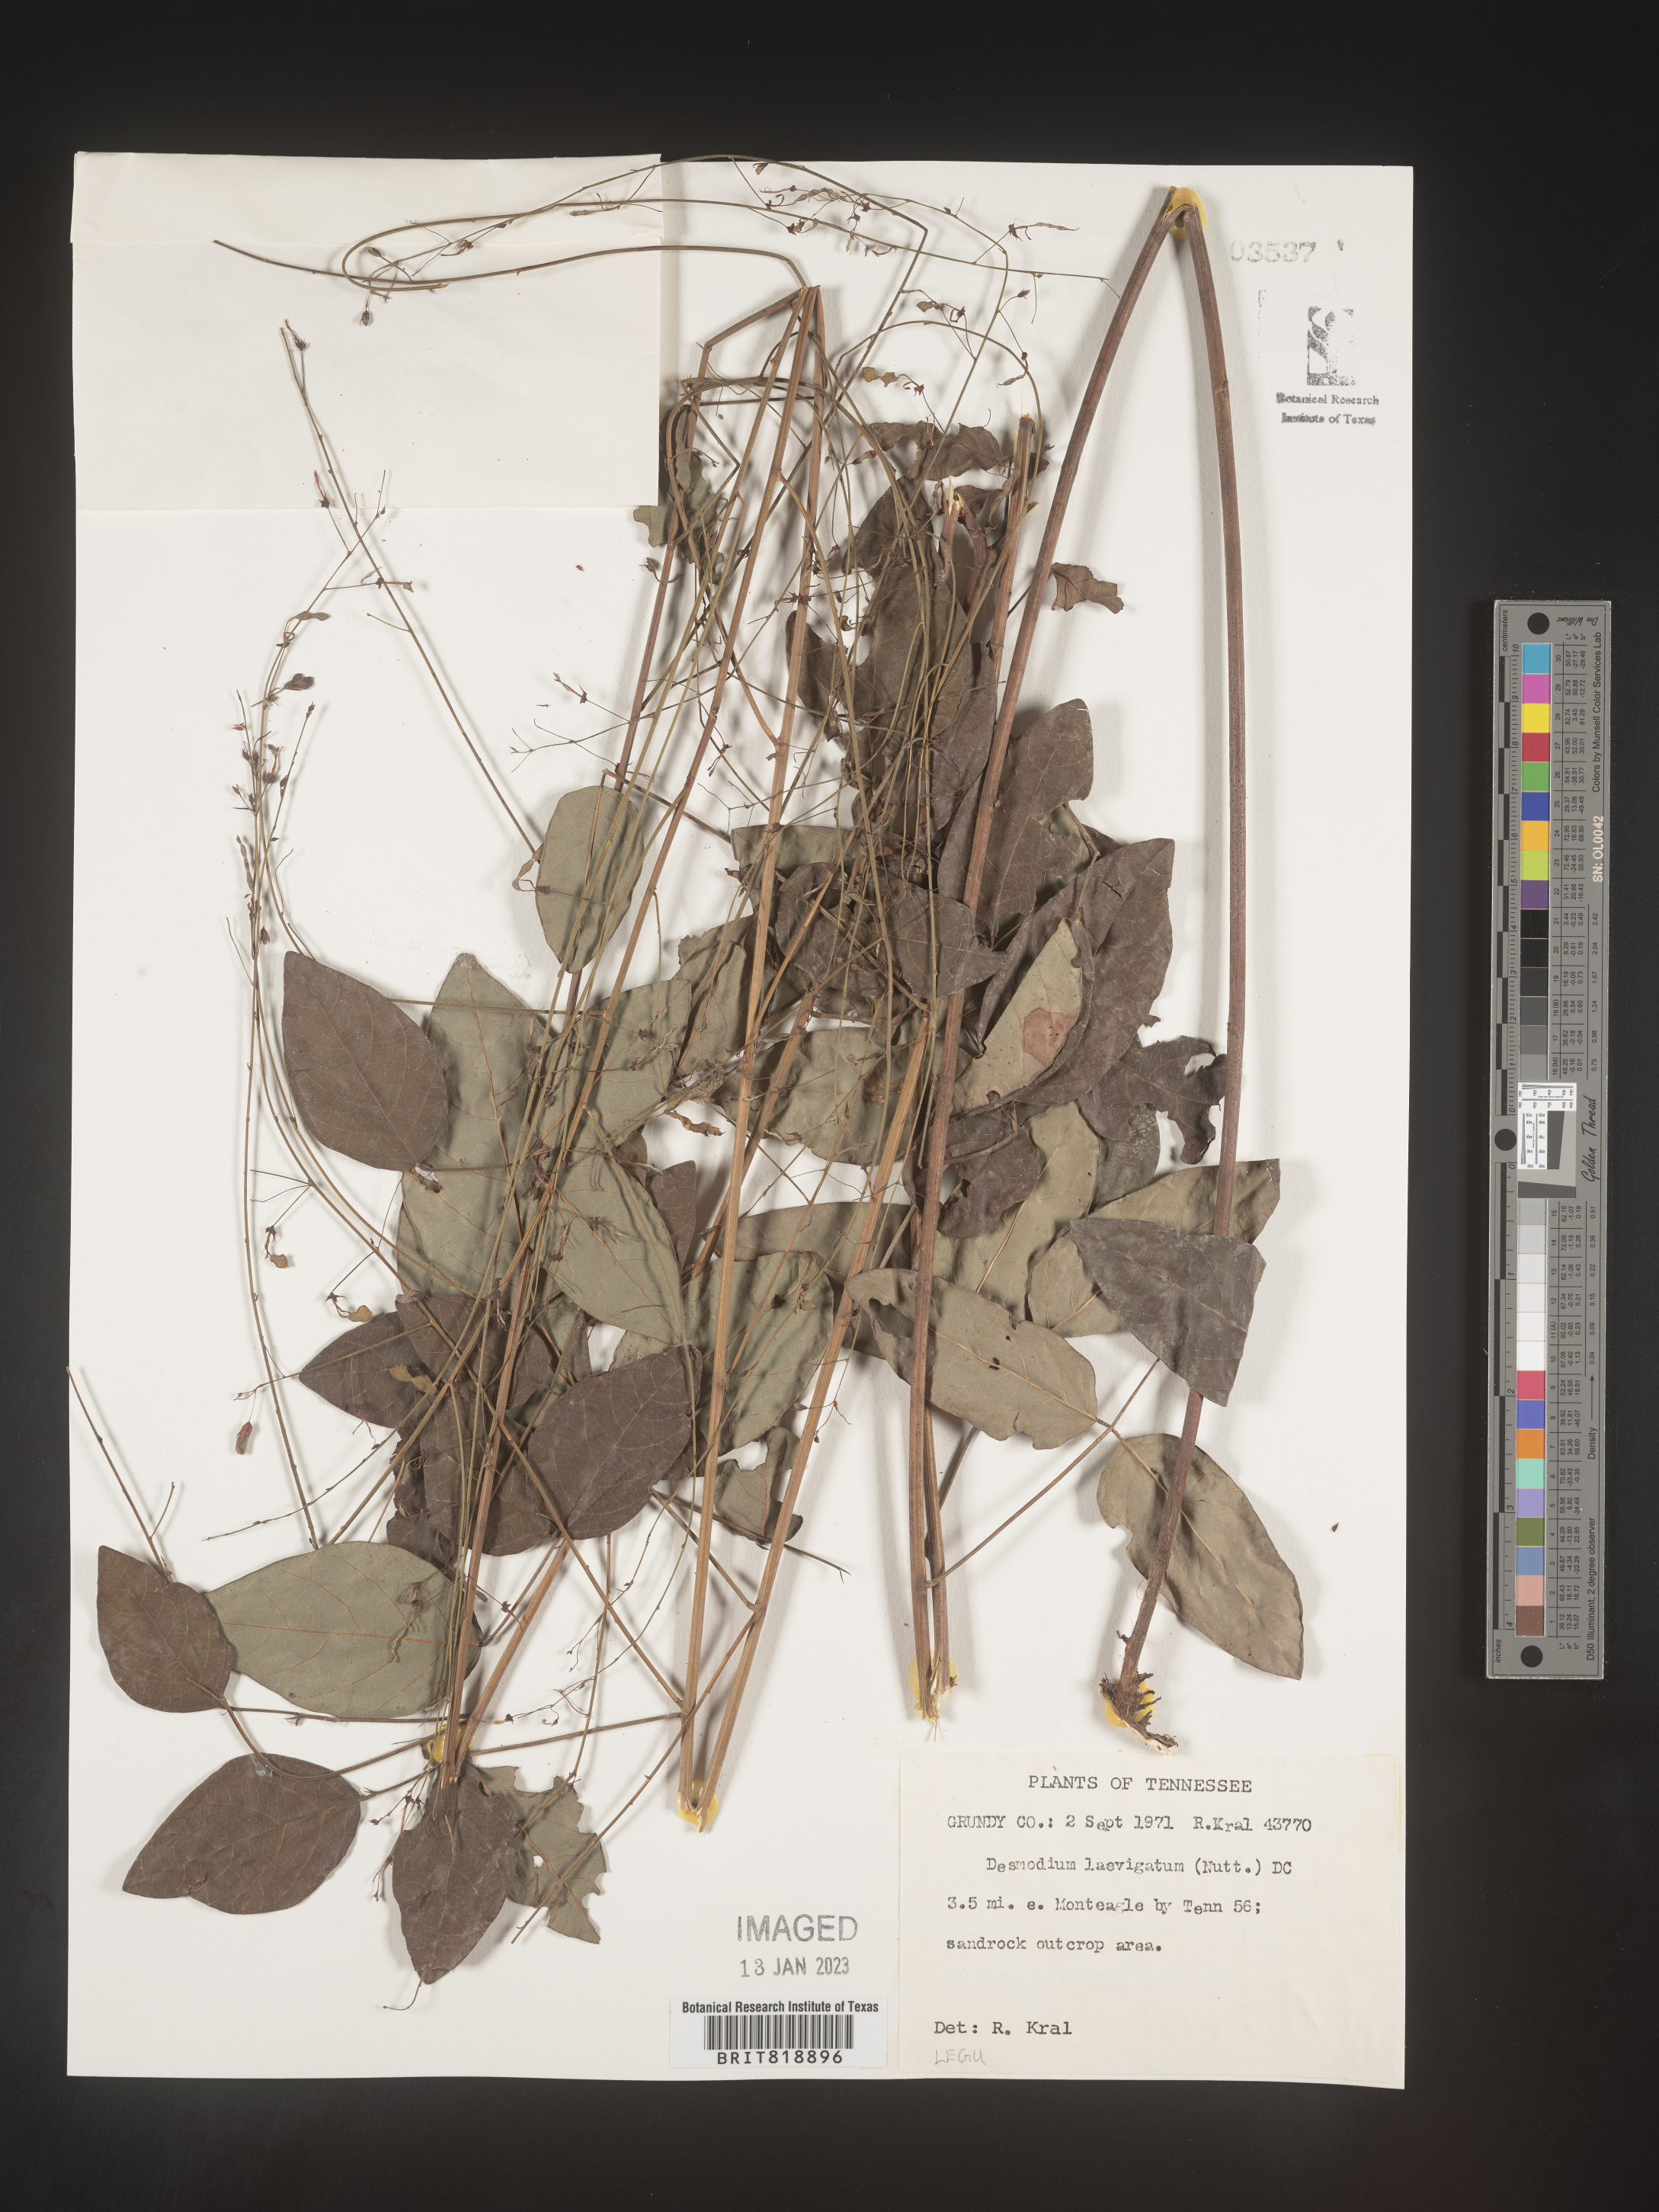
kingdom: Plantae
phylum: Tracheophyta
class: Magnoliopsida
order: Fabales
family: Fabaceae
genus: Desmodium
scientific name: Desmodium laevigatum
